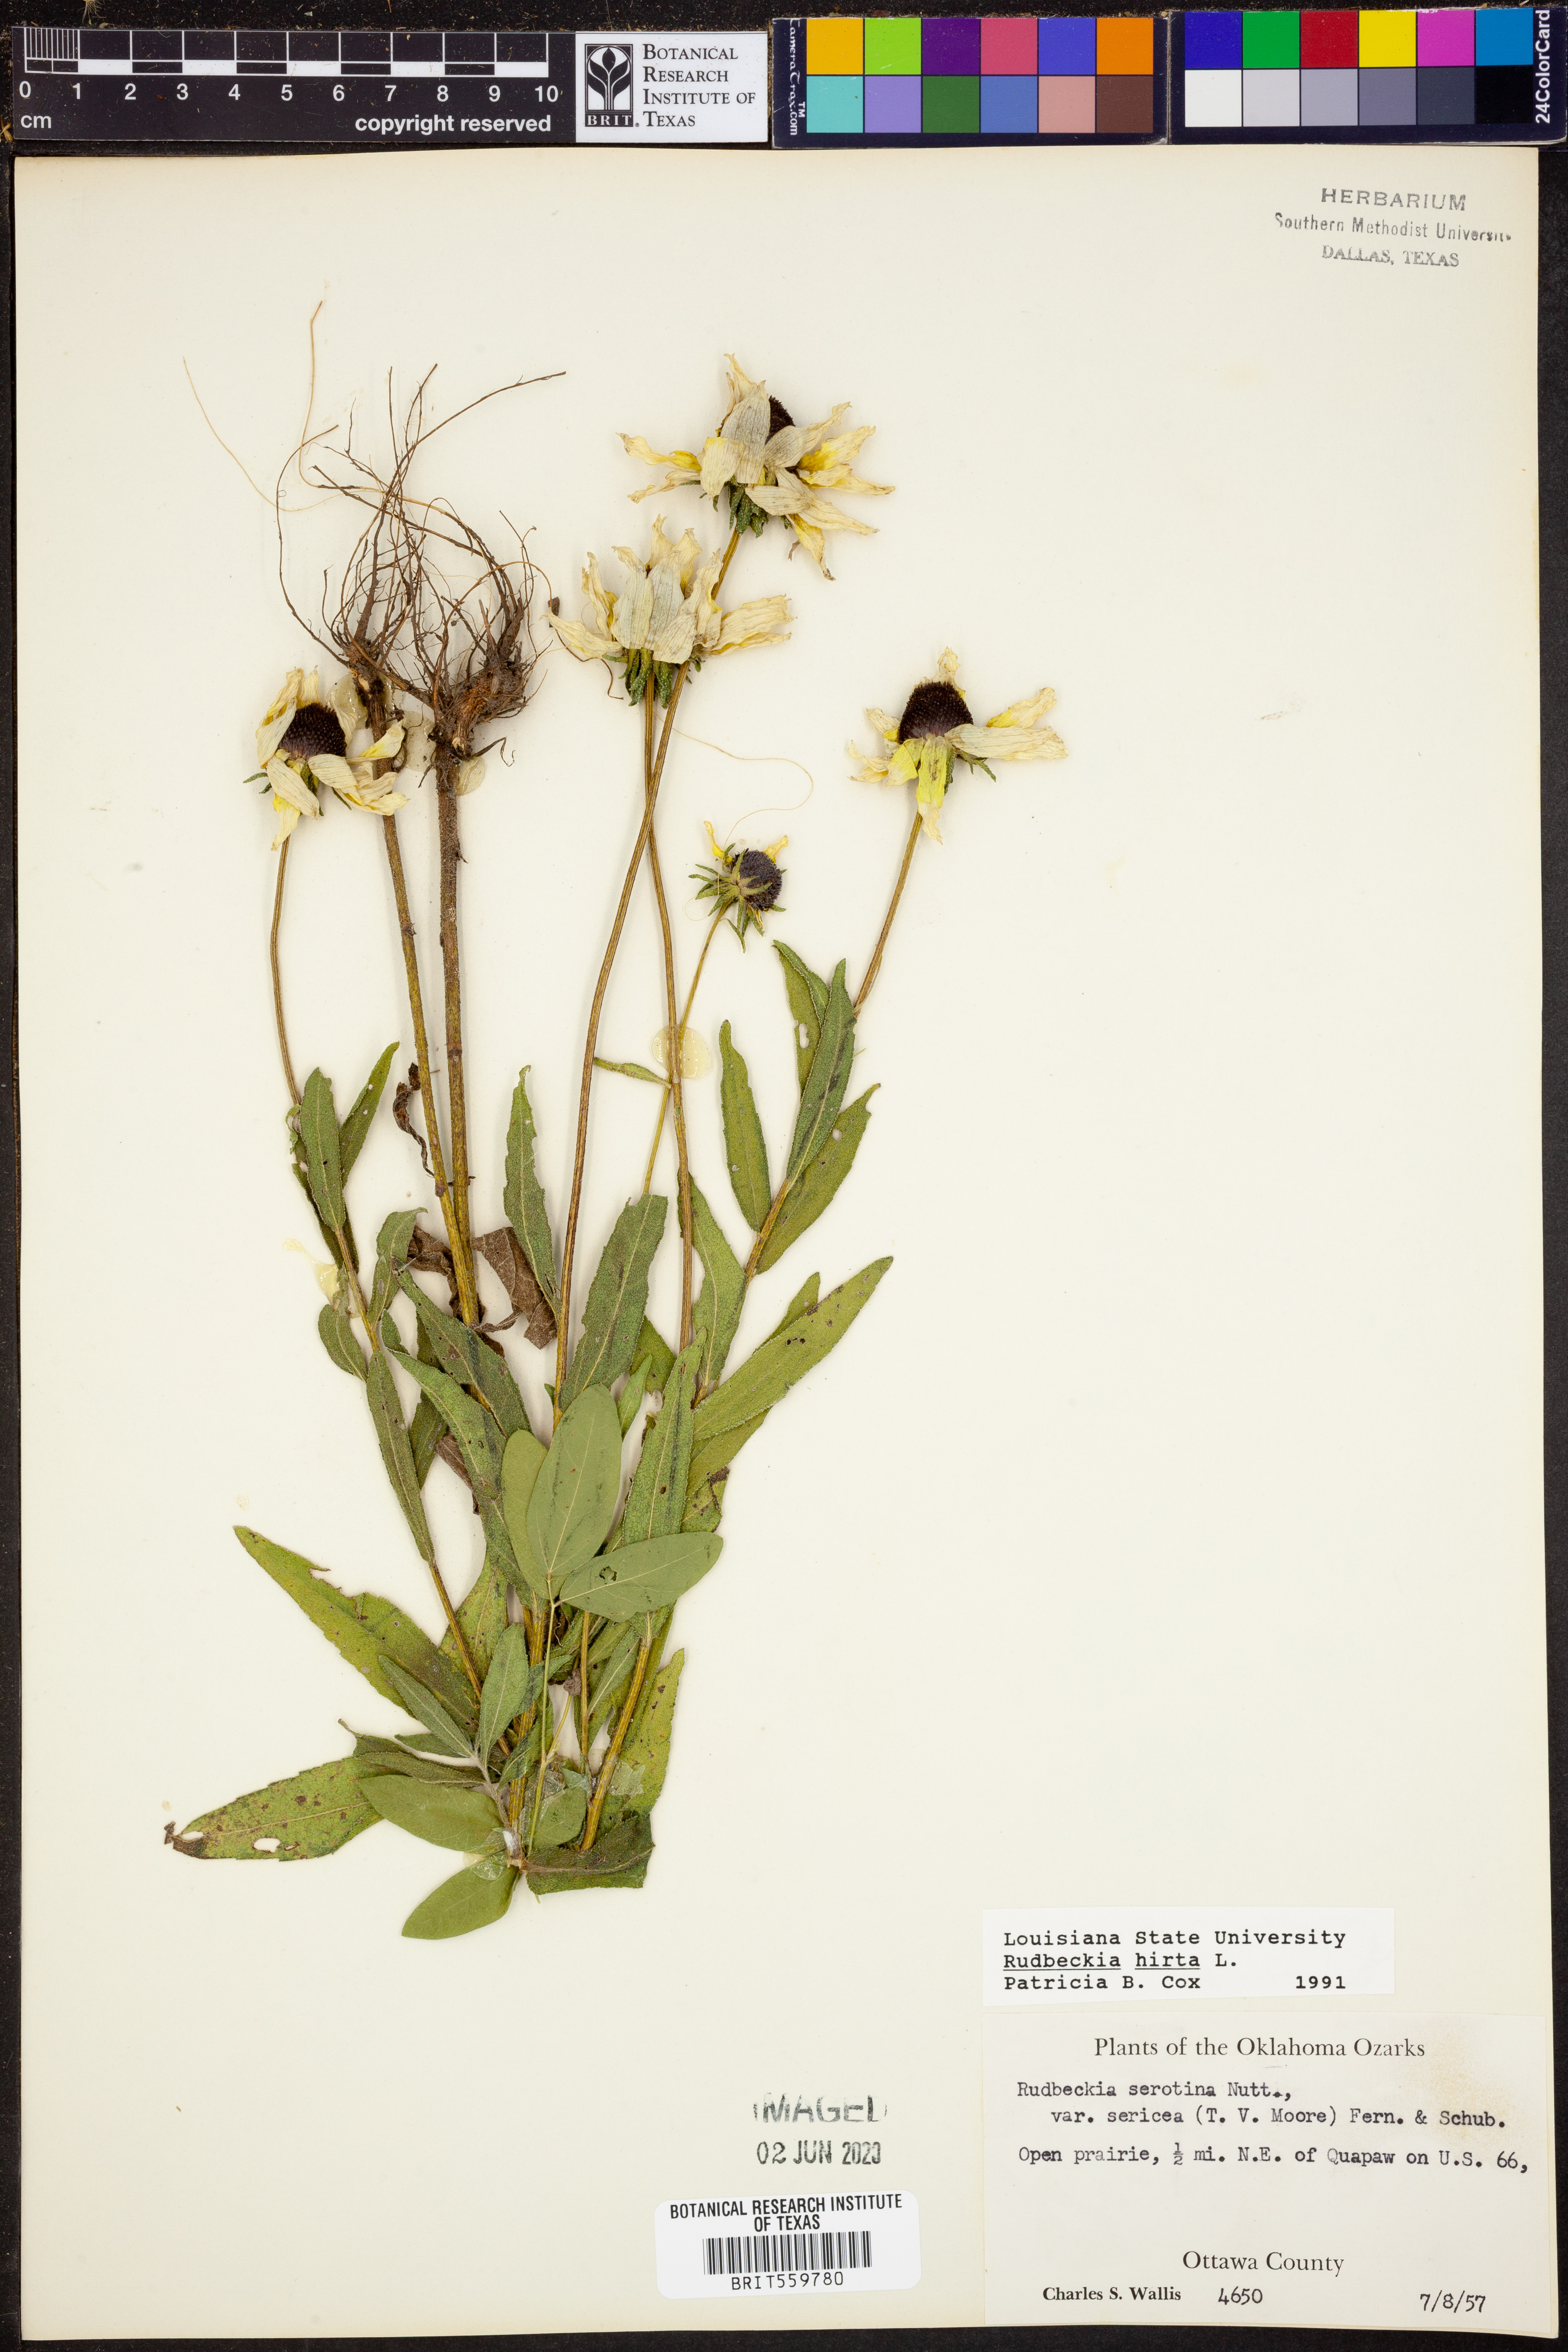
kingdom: Plantae
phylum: Tracheophyta
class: Magnoliopsida
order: Asterales
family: Asteraceae
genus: Rudbeckia
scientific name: Rudbeckia hirta
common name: Black-eyed-susan
